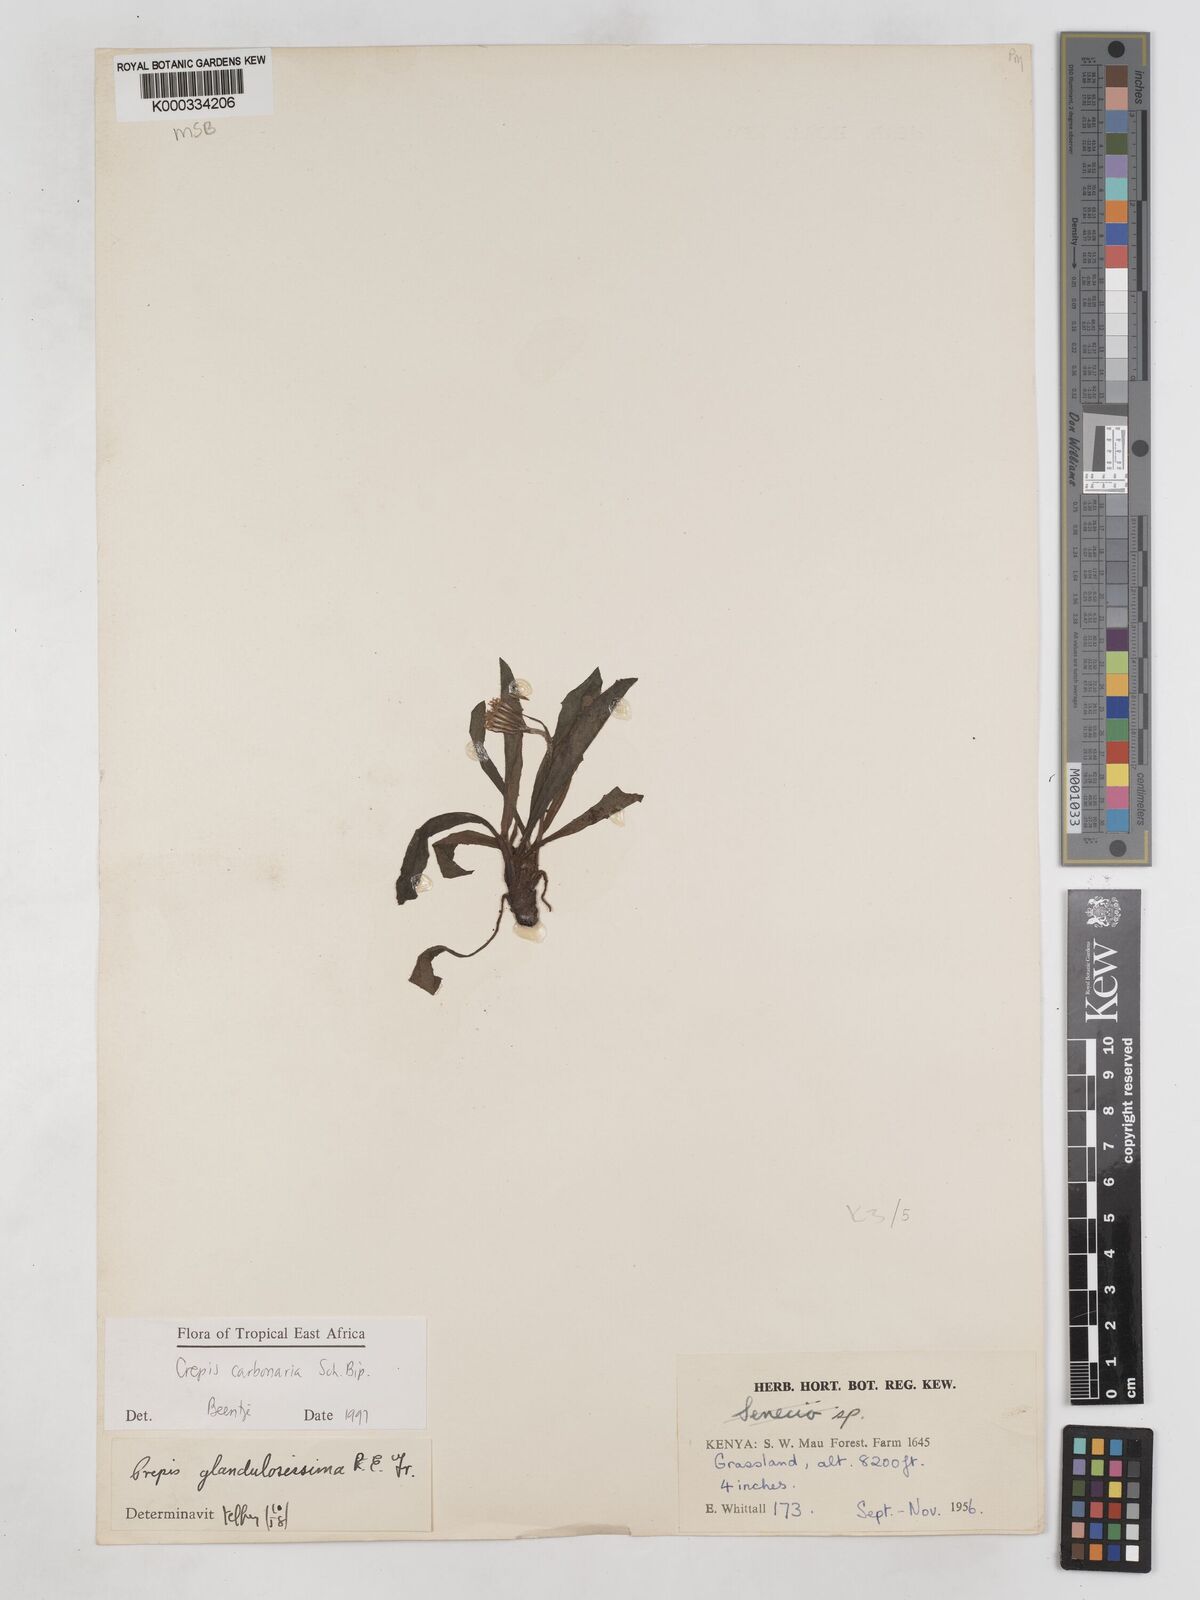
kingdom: Plantae
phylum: Tracheophyta
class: Magnoliopsida
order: Asterales
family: Asteraceae
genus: Crepis
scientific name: Crepis carbonaria
